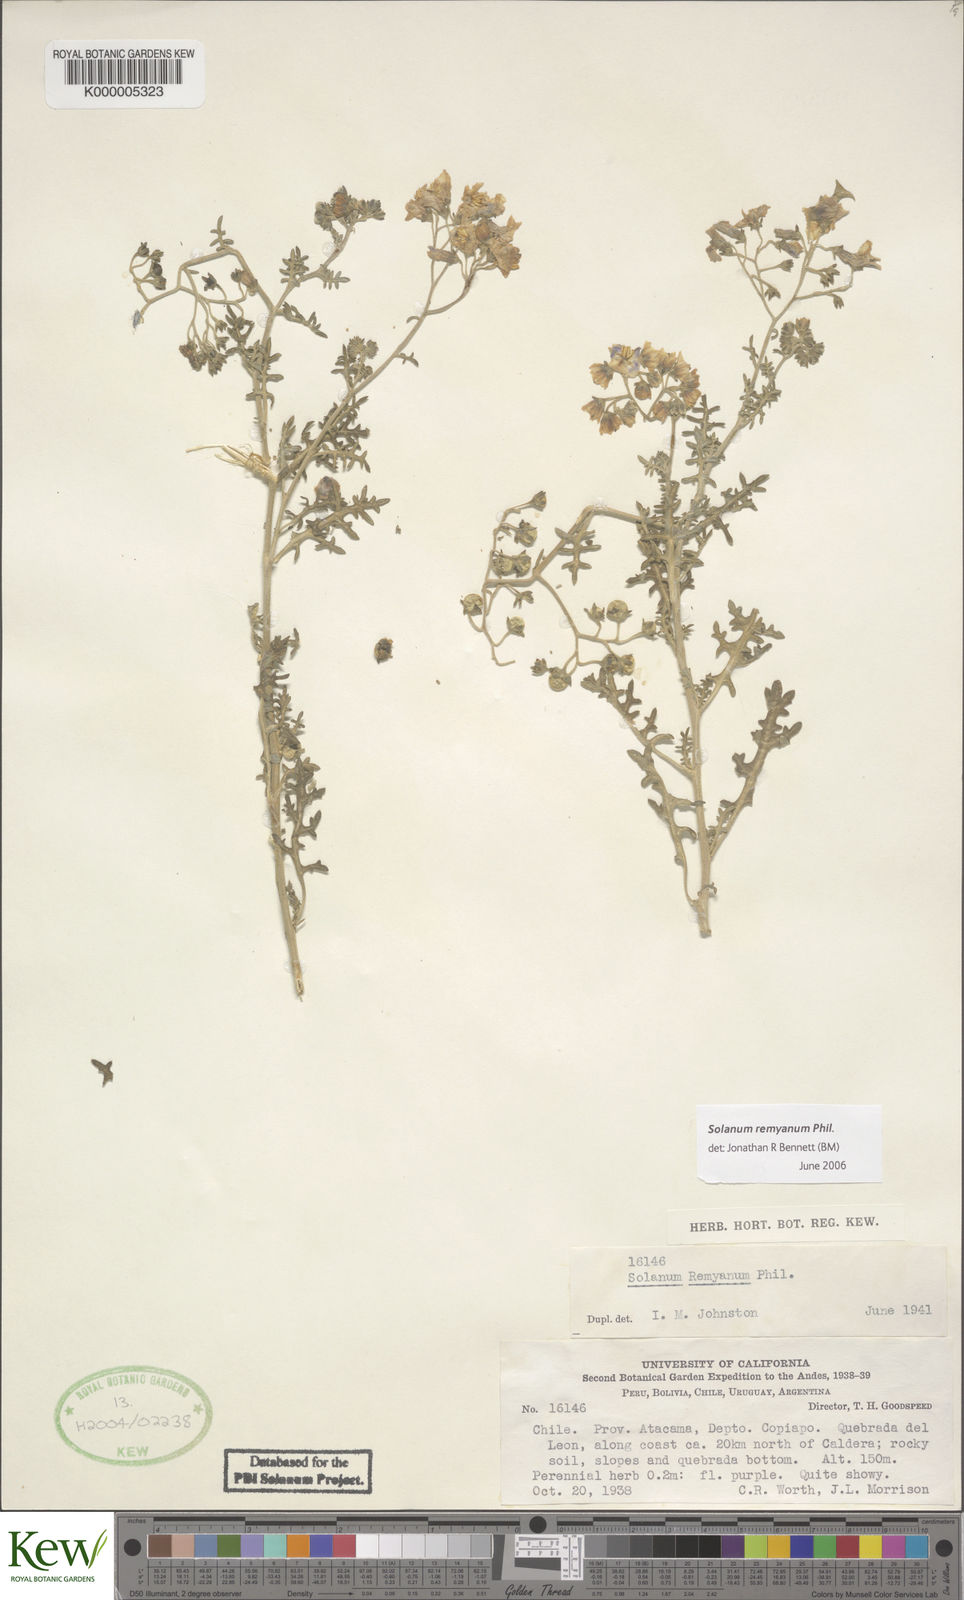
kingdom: Plantae
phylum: Tracheophyta
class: Magnoliopsida
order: Solanales
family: Solanaceae
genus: Solanum
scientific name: Solanum remyanum
